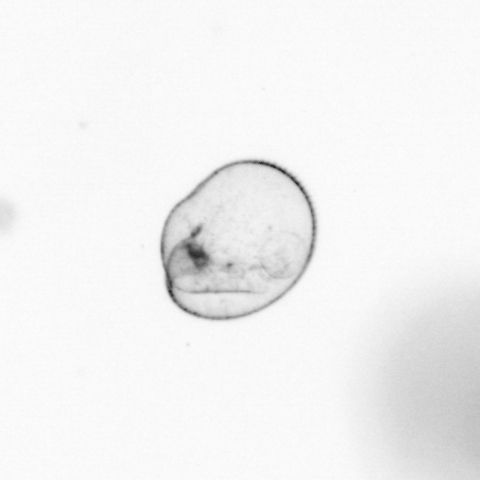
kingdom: Chromista
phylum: Myzozoa
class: Dinophyceae
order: Noctilucales
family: Noctilucaceae
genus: Noctiluca
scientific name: Noctiluca scintillans
